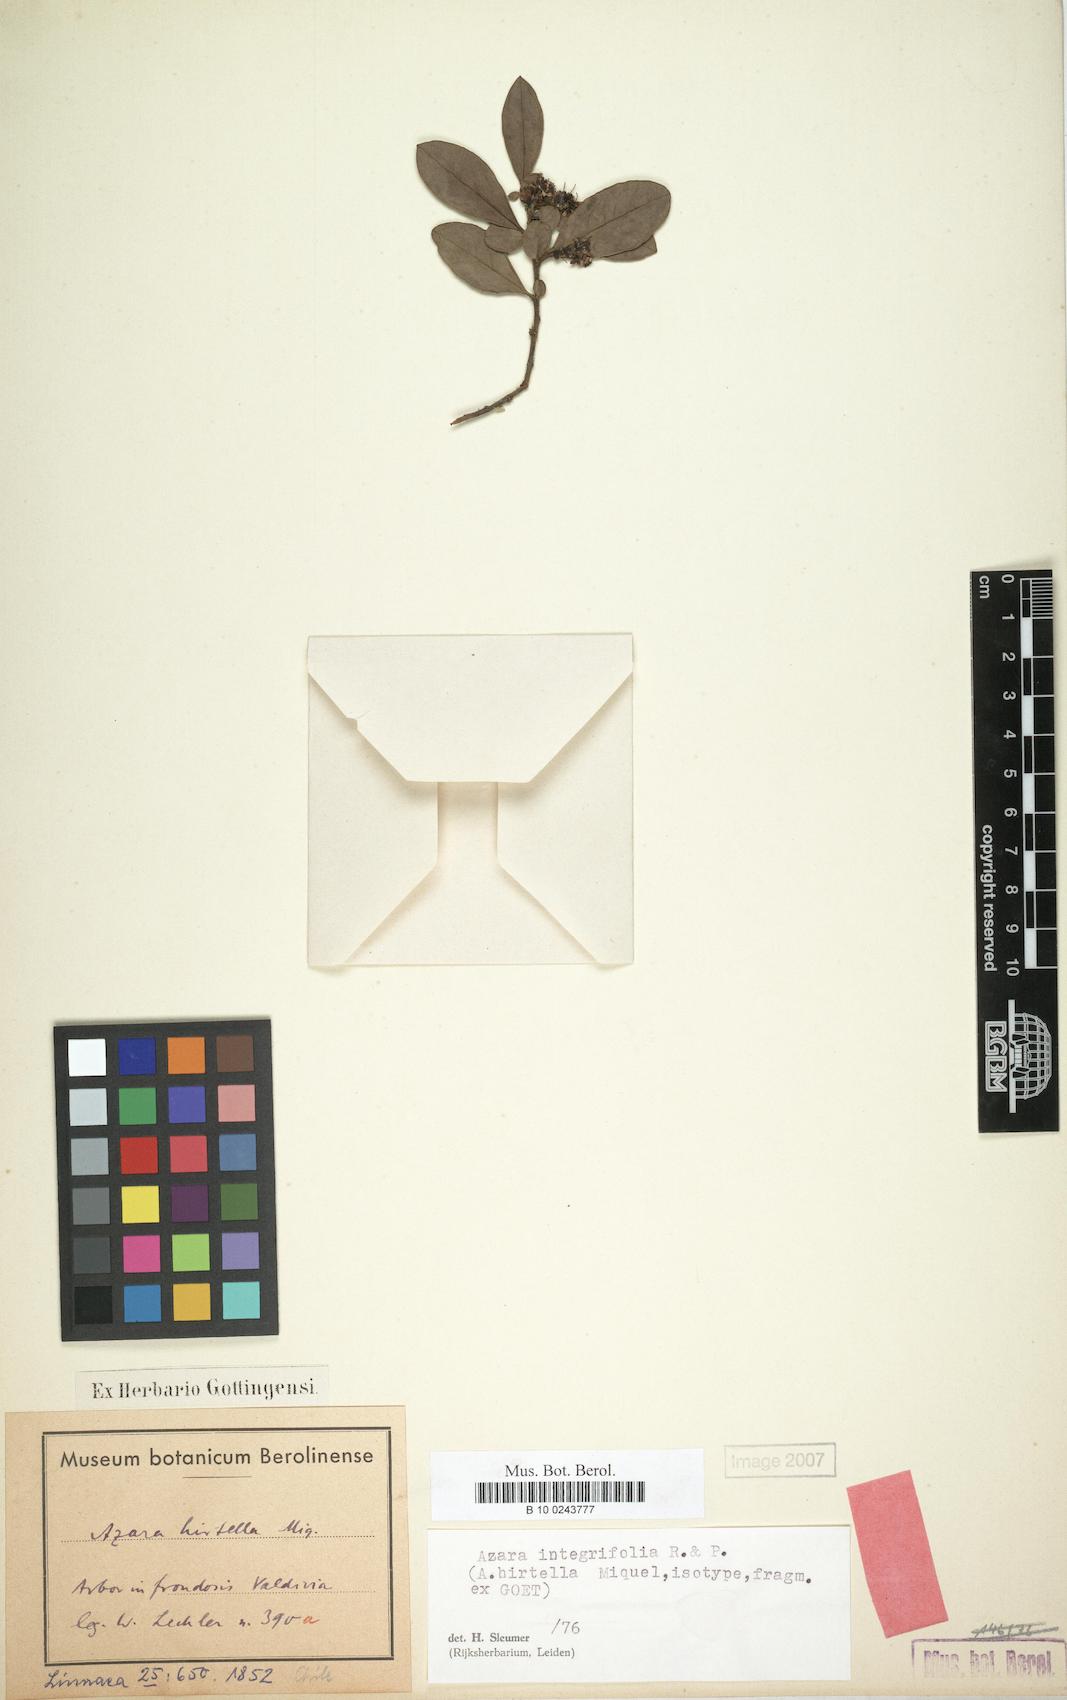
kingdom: Plantae
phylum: Tracheophyta
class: Magnoliopsida
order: Malpighiales
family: Salicaceae
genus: Azara
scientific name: Azara integrifolia
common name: Goldspire
